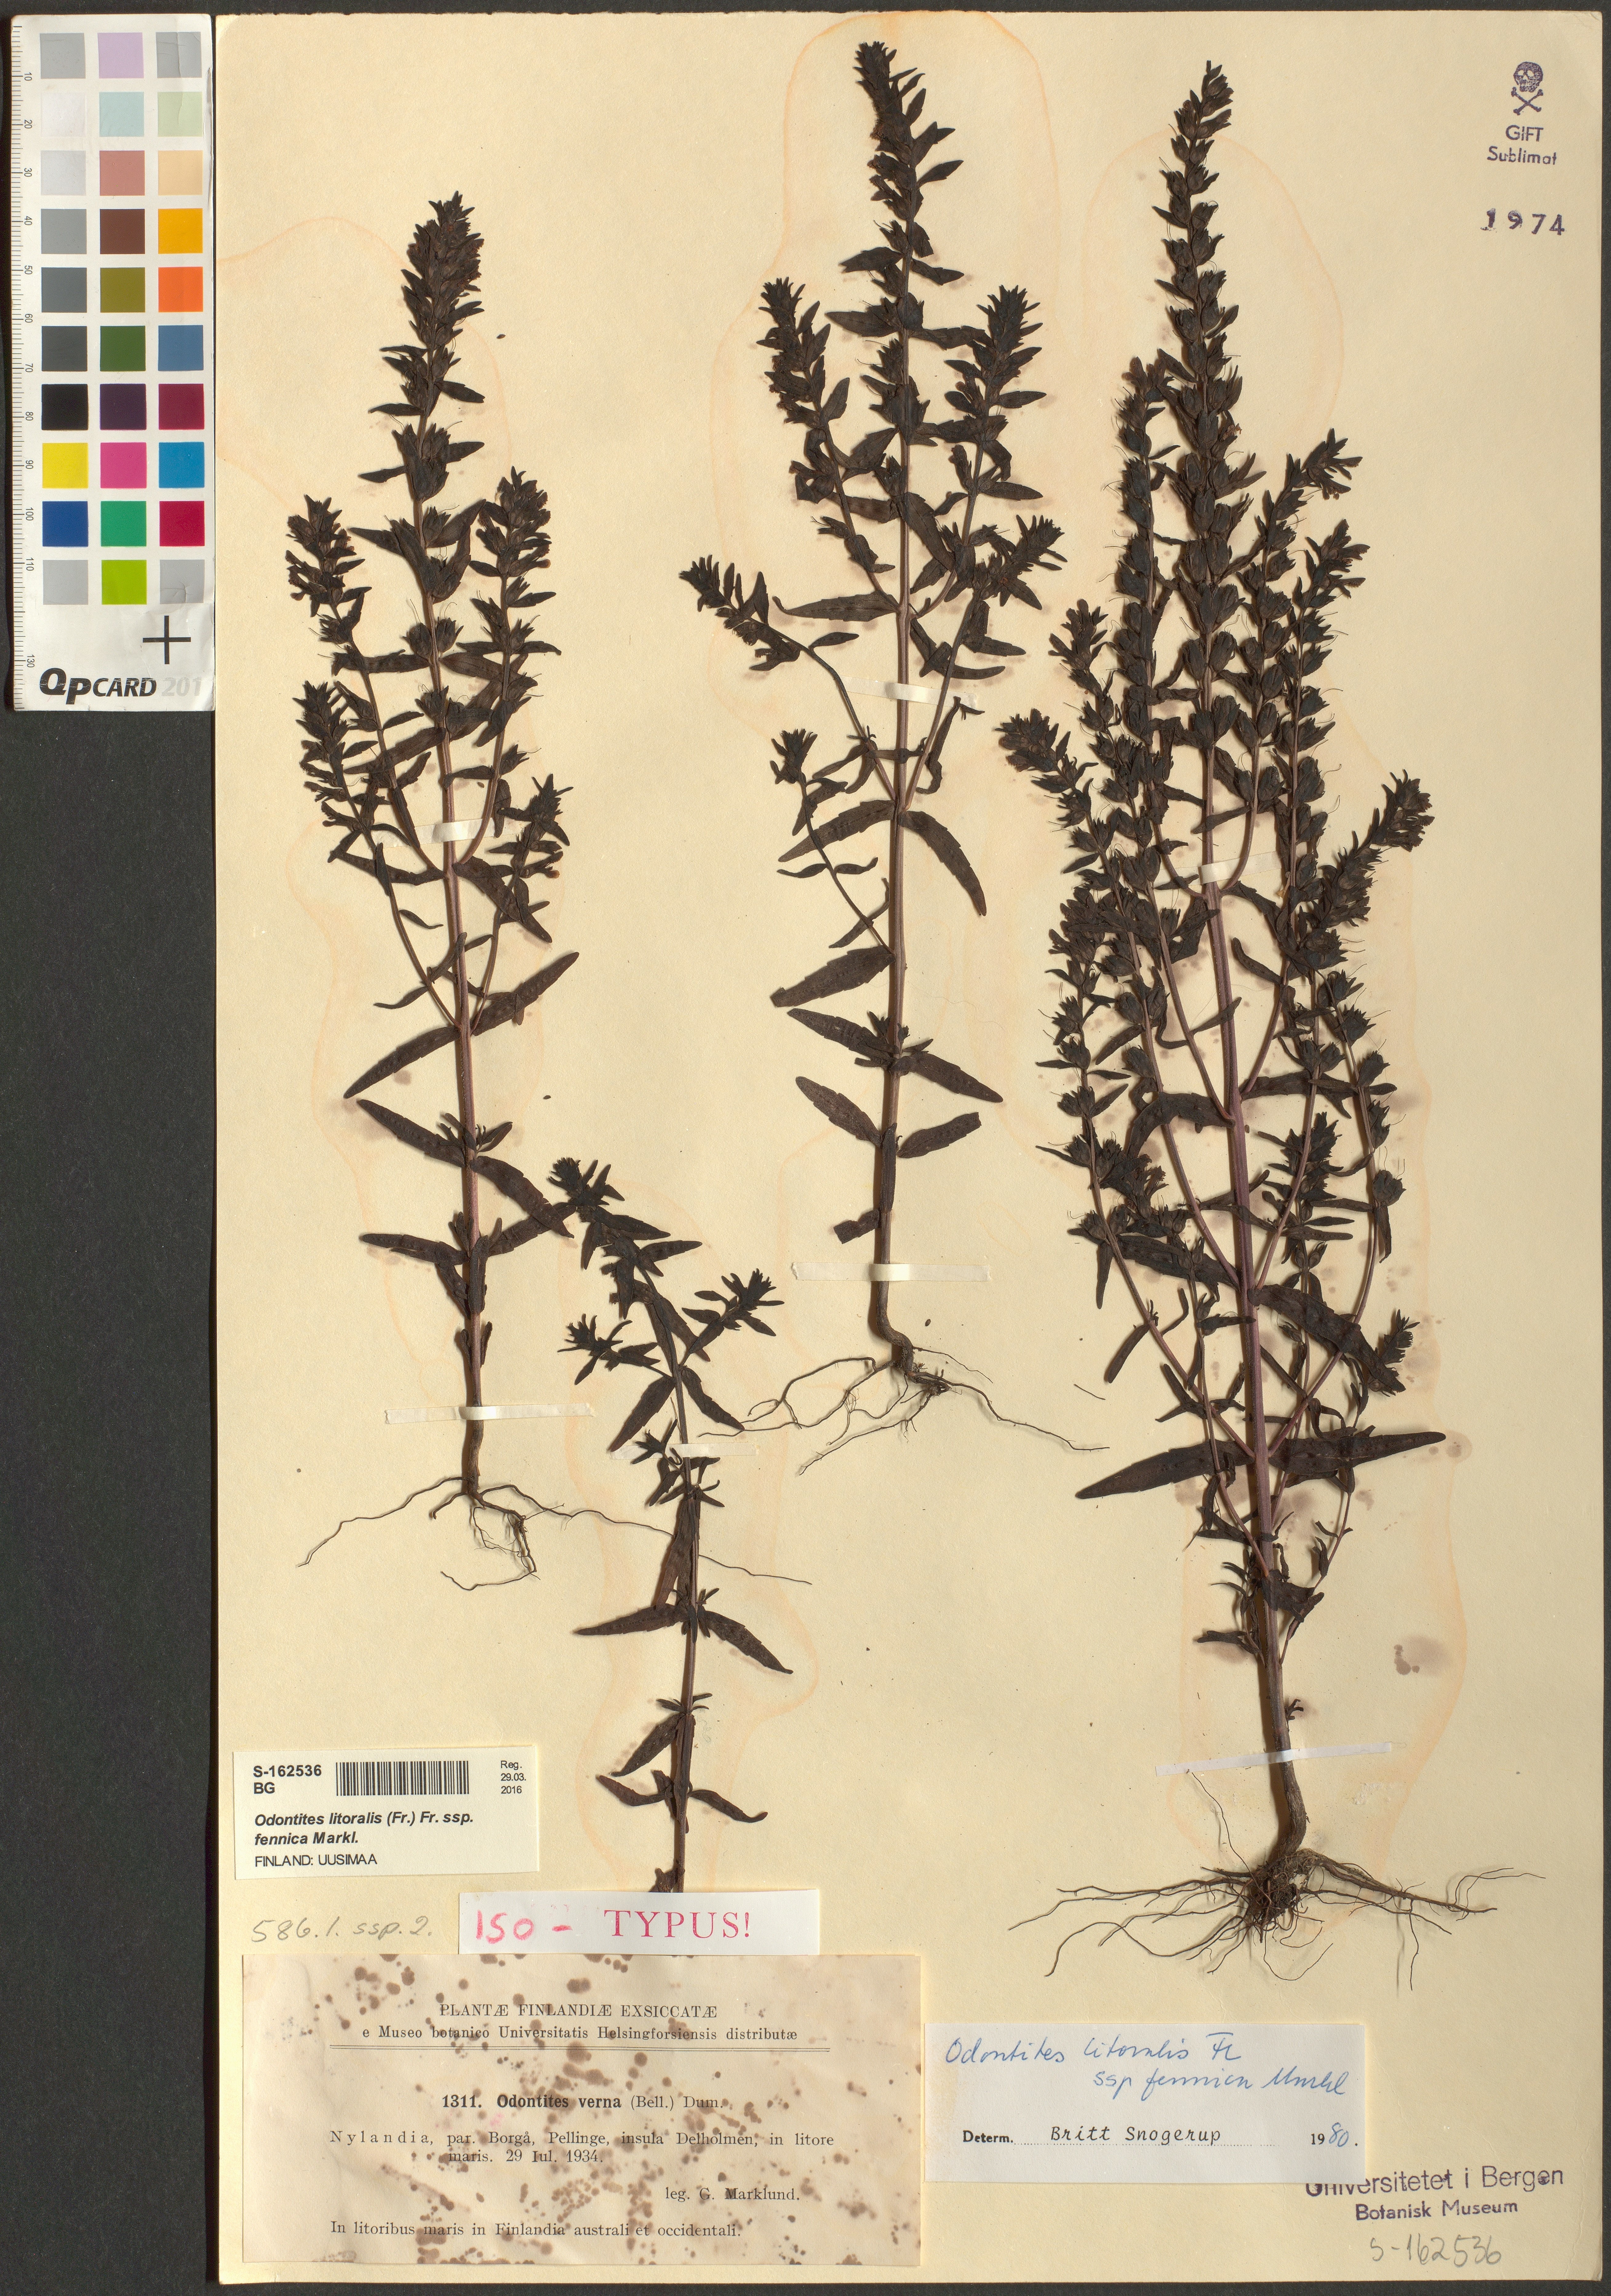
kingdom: Plantae
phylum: Tracheophyta
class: Magnoliopsida
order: Lamiales
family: Orobanchaceae
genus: Odontites
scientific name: Odontites litoralis
